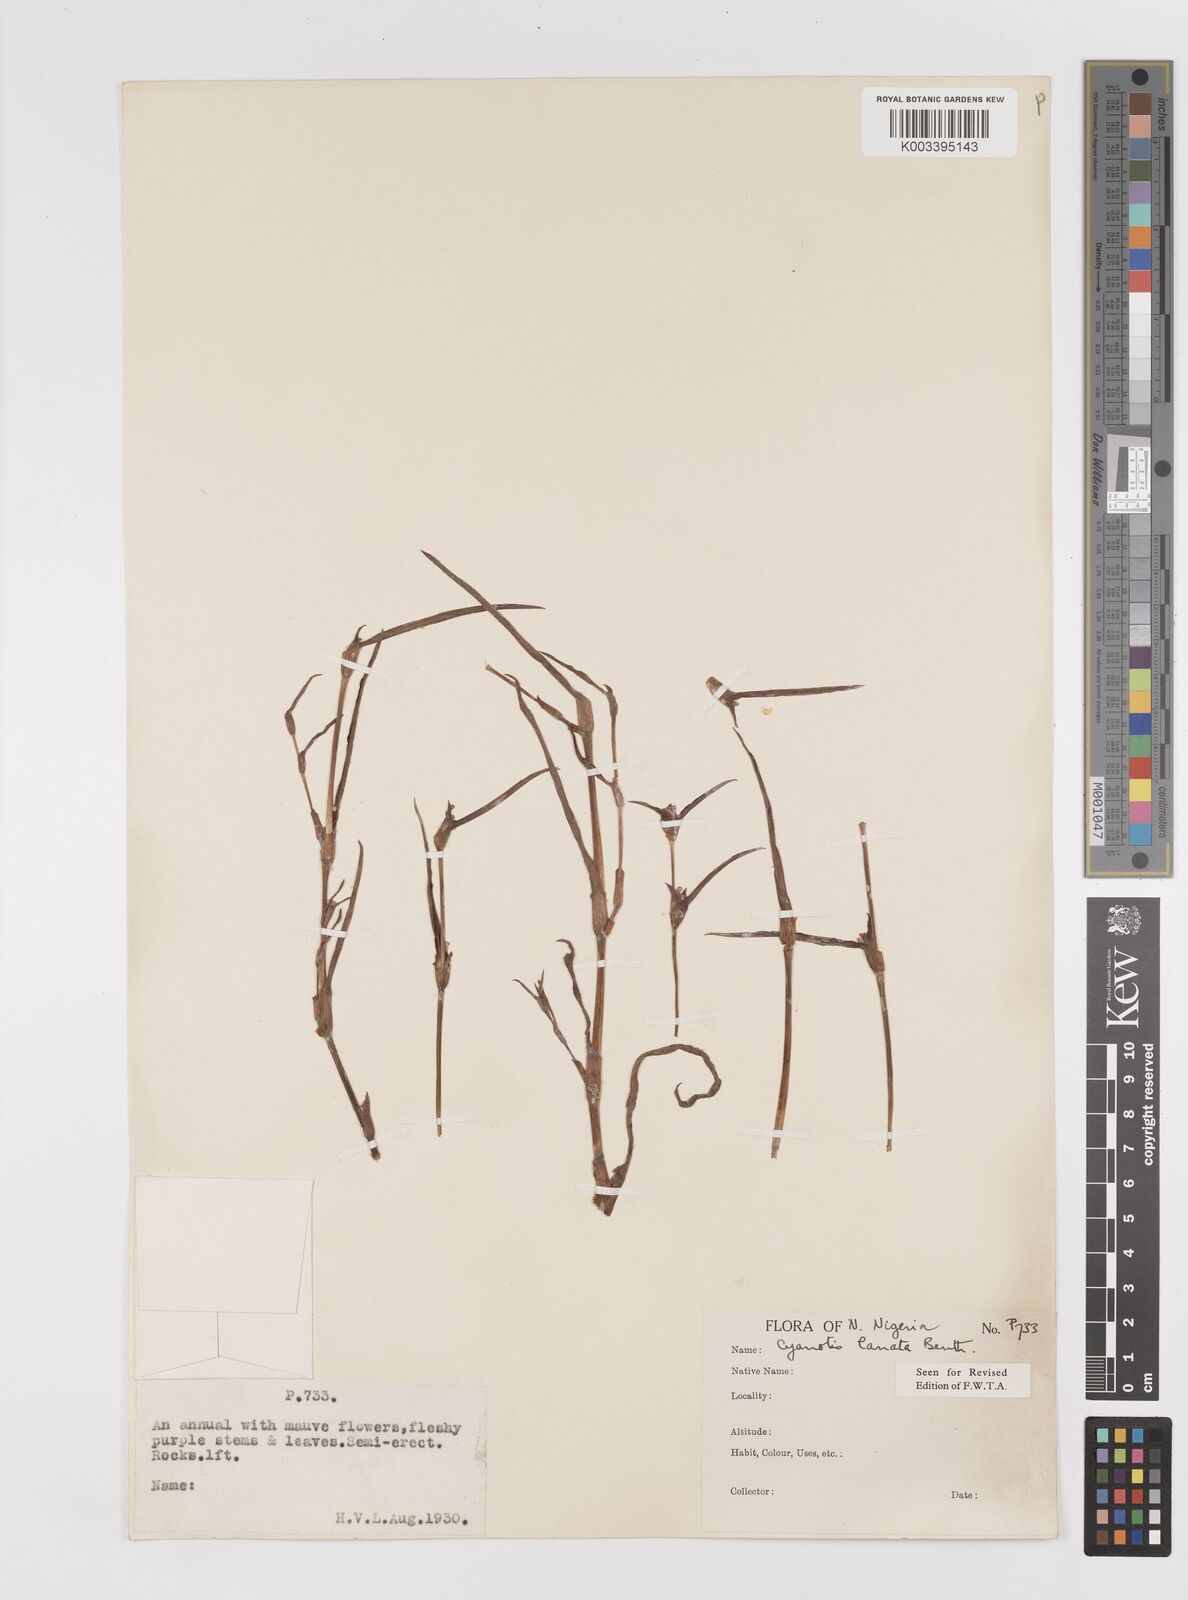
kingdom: Plantae
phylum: Tracheophyta
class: Liliopsida
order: Commelinales
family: Commelinaceae
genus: Cyanotis
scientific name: Cyanotis lanata
